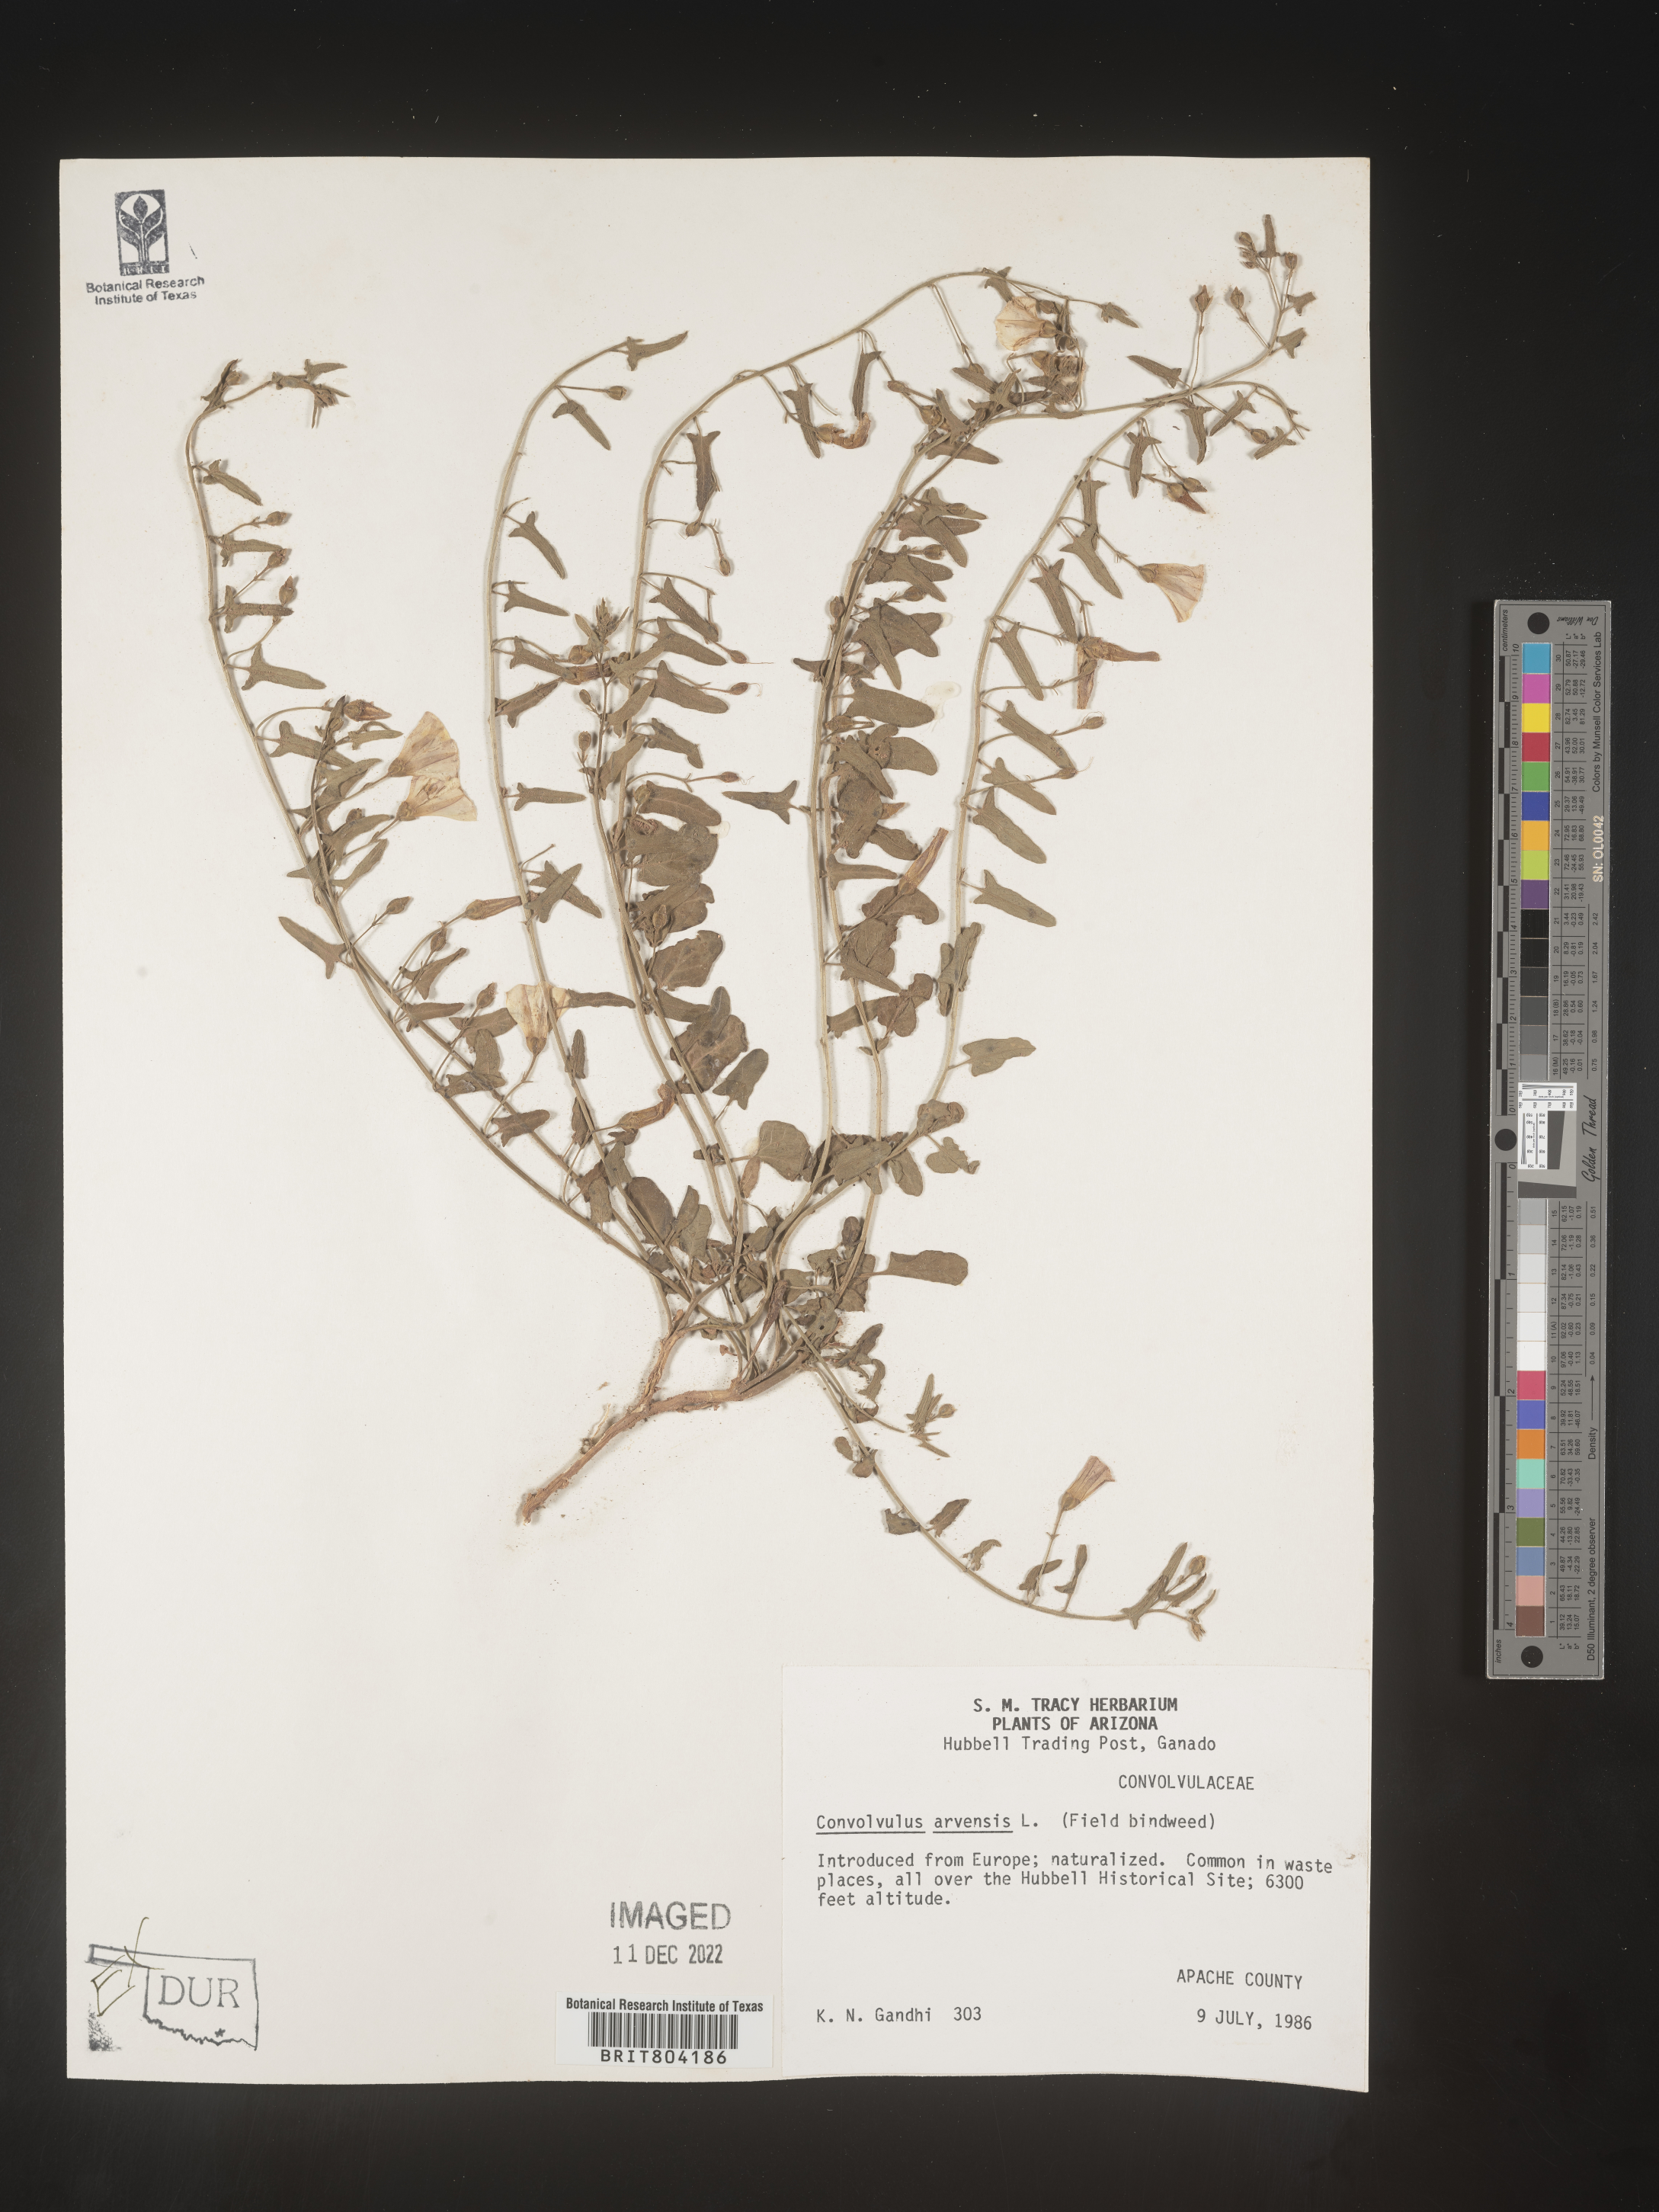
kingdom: Plantae
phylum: Tracheophyta
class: Magnoliopsida
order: Solanales
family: Convolvulaceae
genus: Convolvulus
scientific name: Convolvulus arvensis
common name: Field bindweed
